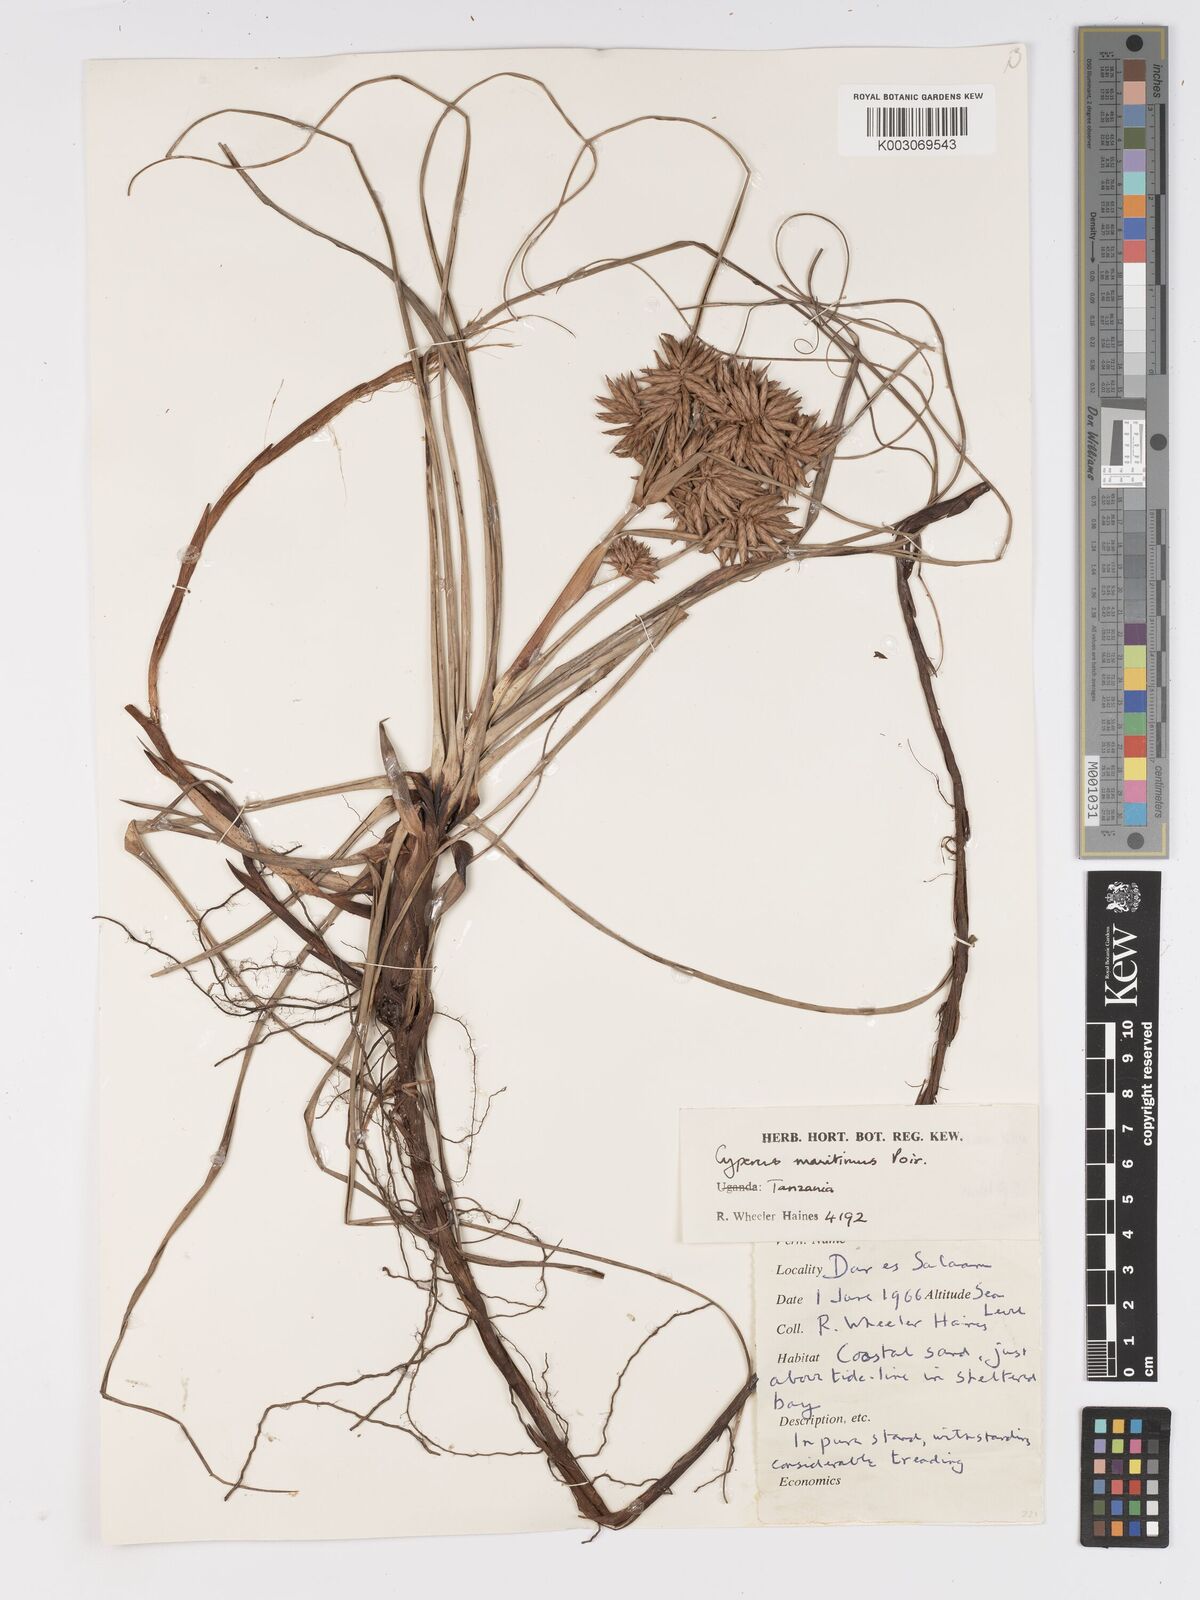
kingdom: Plantae
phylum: Tracheophyta
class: Liliopsida
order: Poales
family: Cyperaceae
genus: Cyperus
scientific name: Cyperus crassipes
